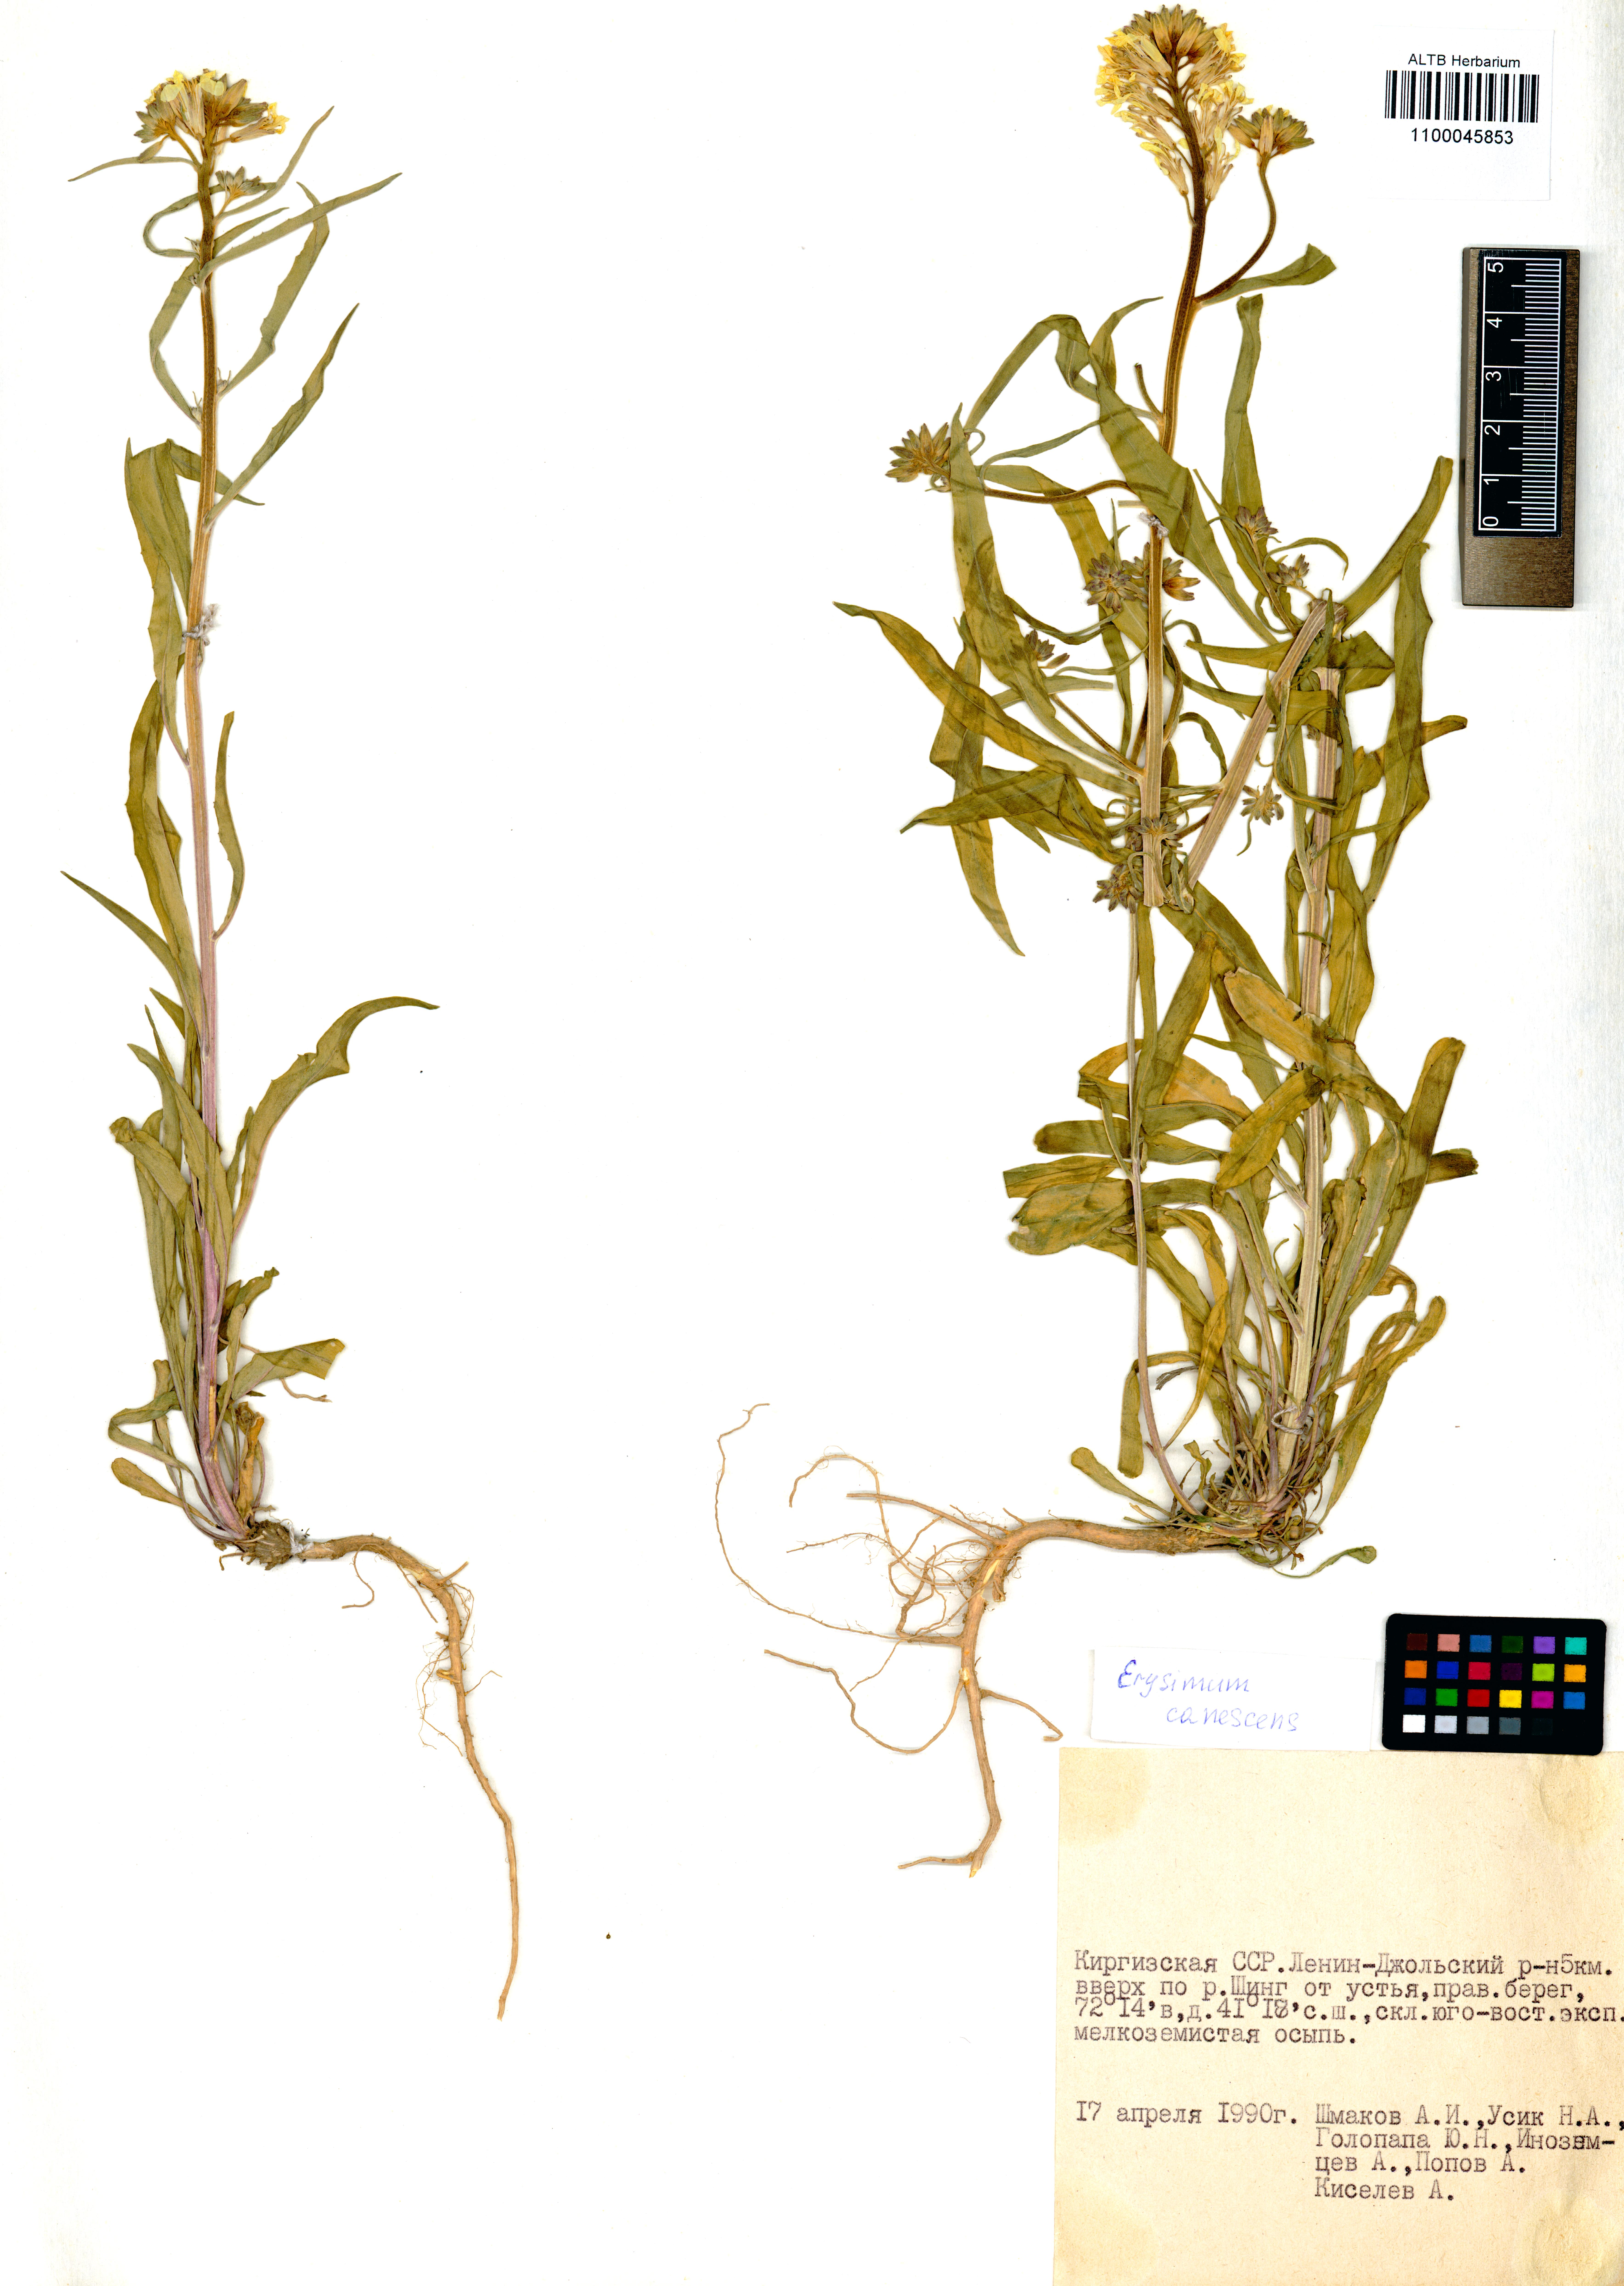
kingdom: Plantae
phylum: Tracheophyta
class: Magnoliopsida
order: Brassicales
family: Brassicaceae
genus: Erysimum
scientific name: Erysimum canescens
